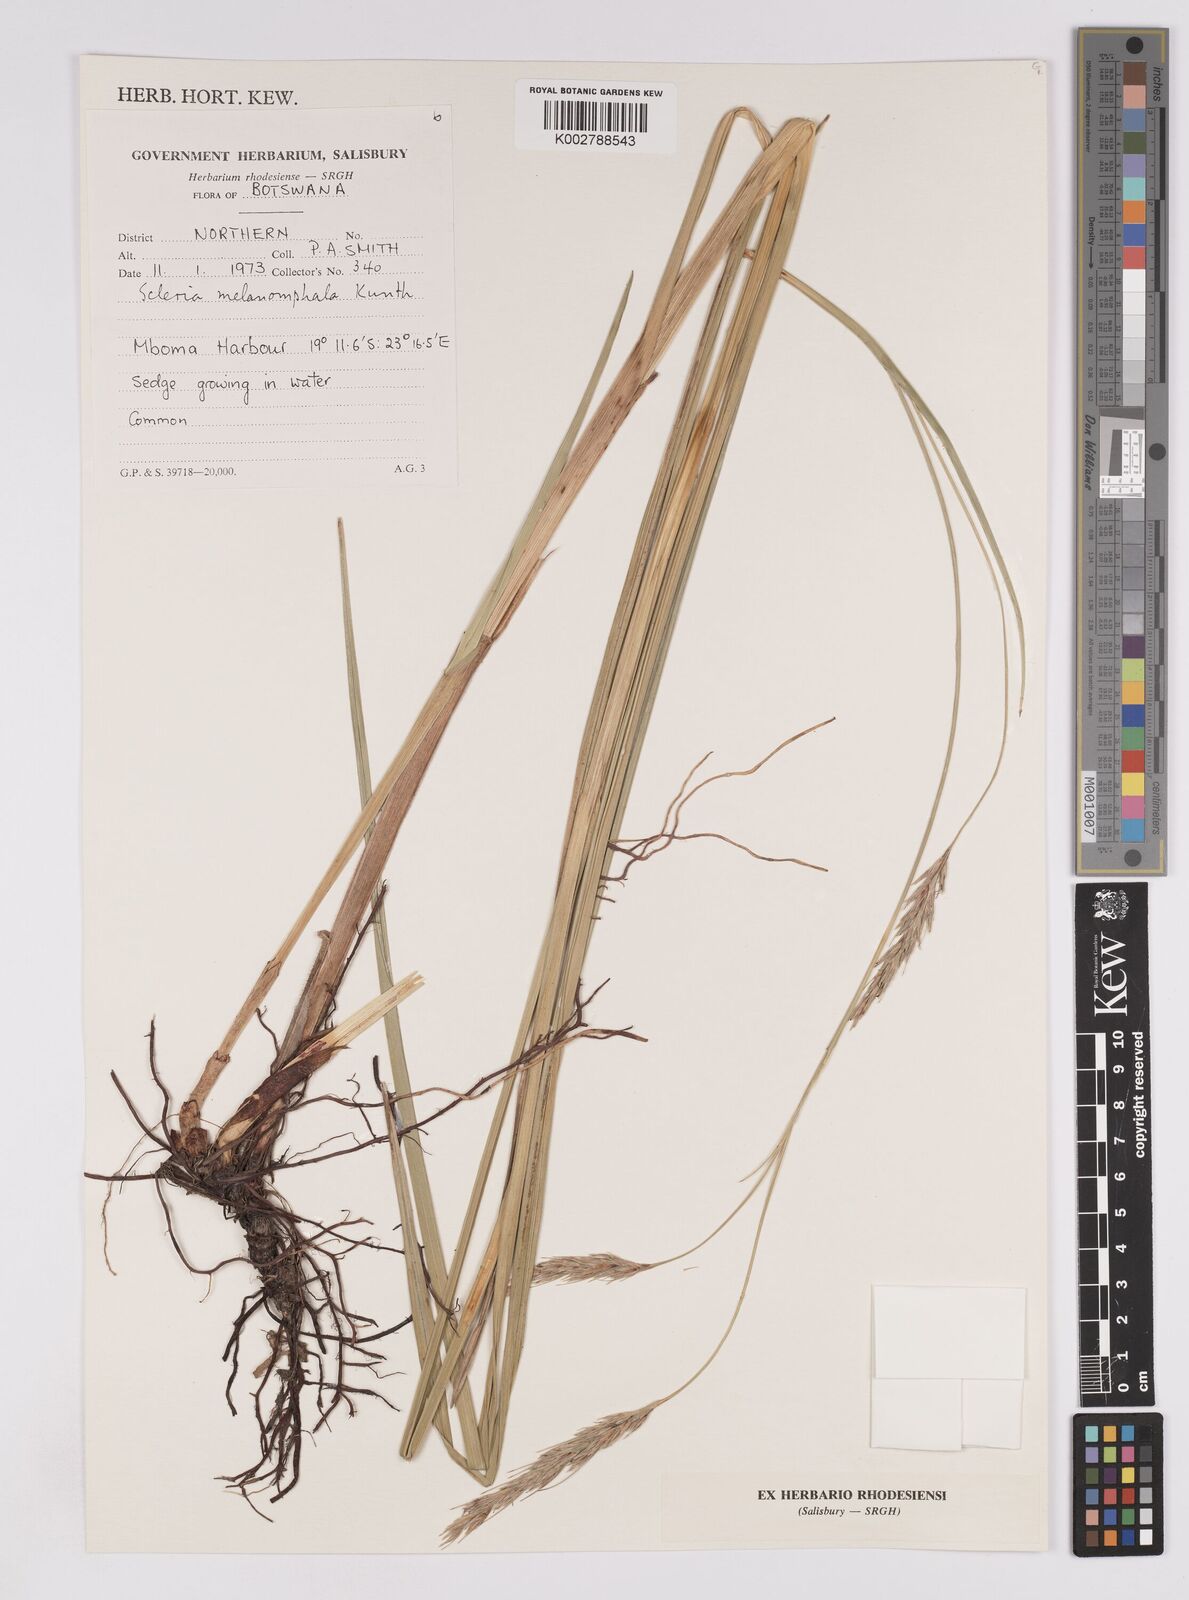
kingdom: Plantae
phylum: Tracheophyta
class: Liliopsida
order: Poales
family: Cyperaceae
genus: Scleria
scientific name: Scleria melanomphala
